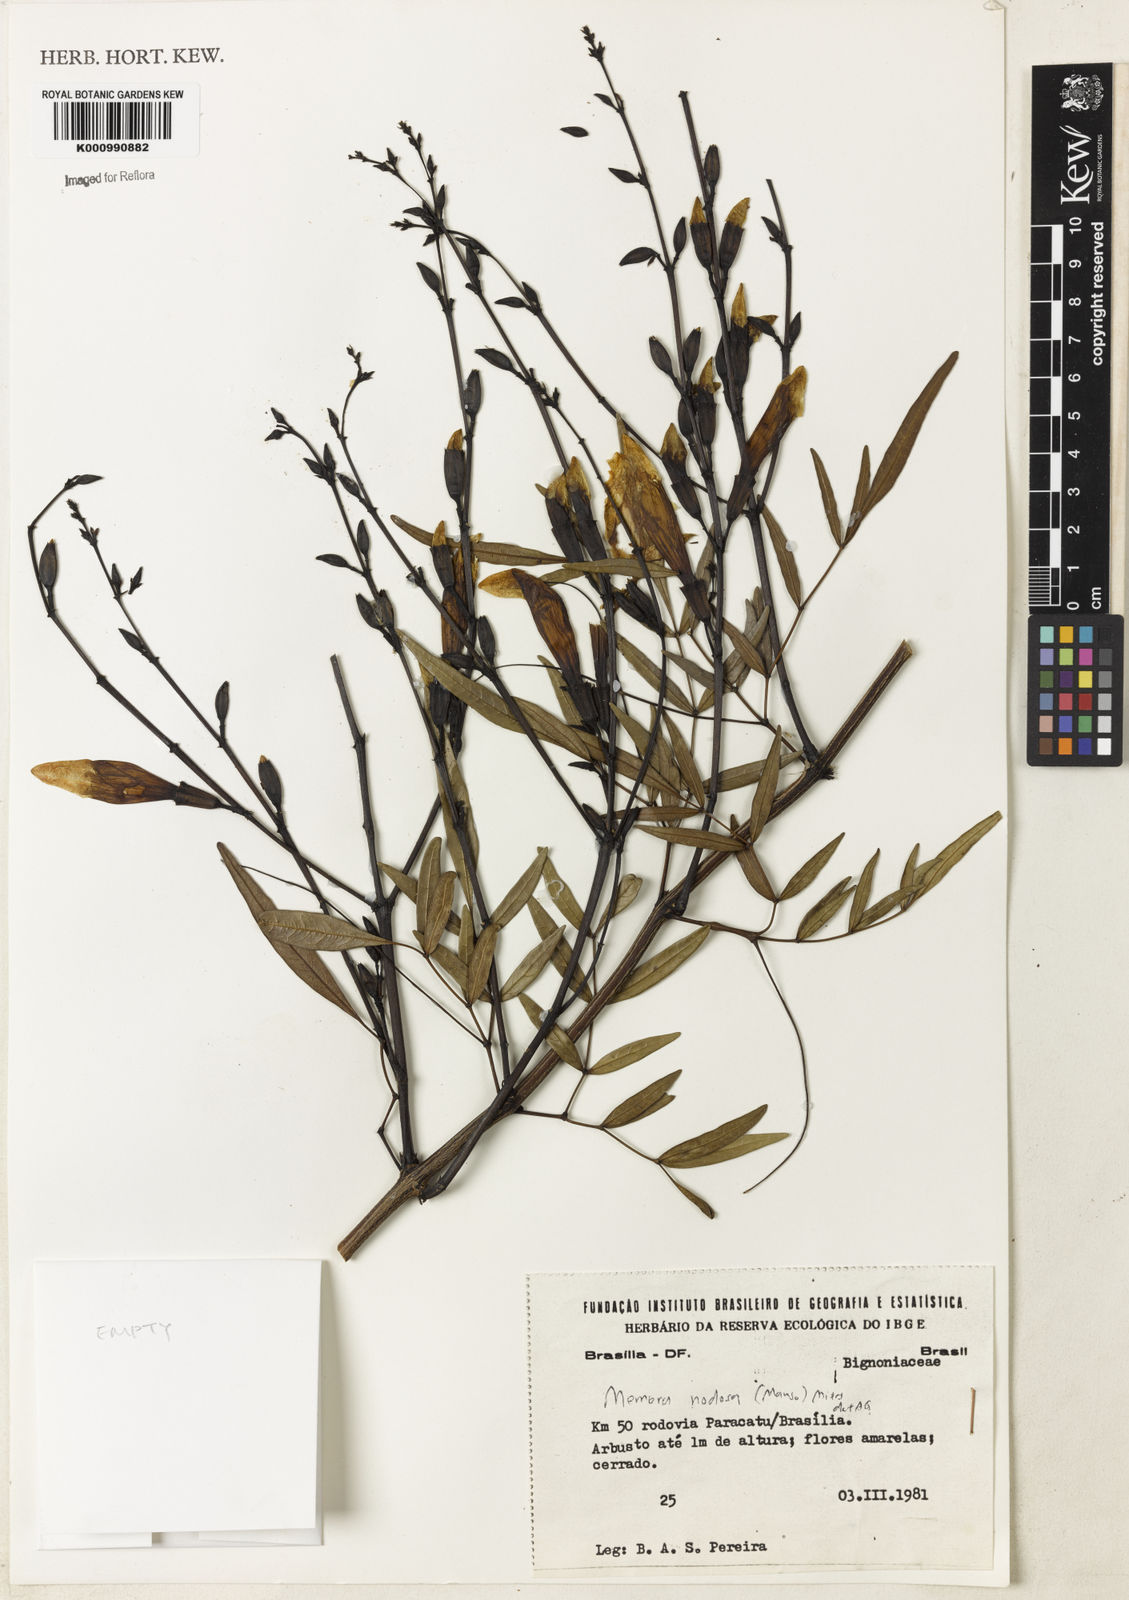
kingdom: Plantae
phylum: Tracheophyta
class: Magnoliopsida
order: Lamiales
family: Bignoniaceae
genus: Adenocalymma
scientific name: Adenocalymma nodosum
